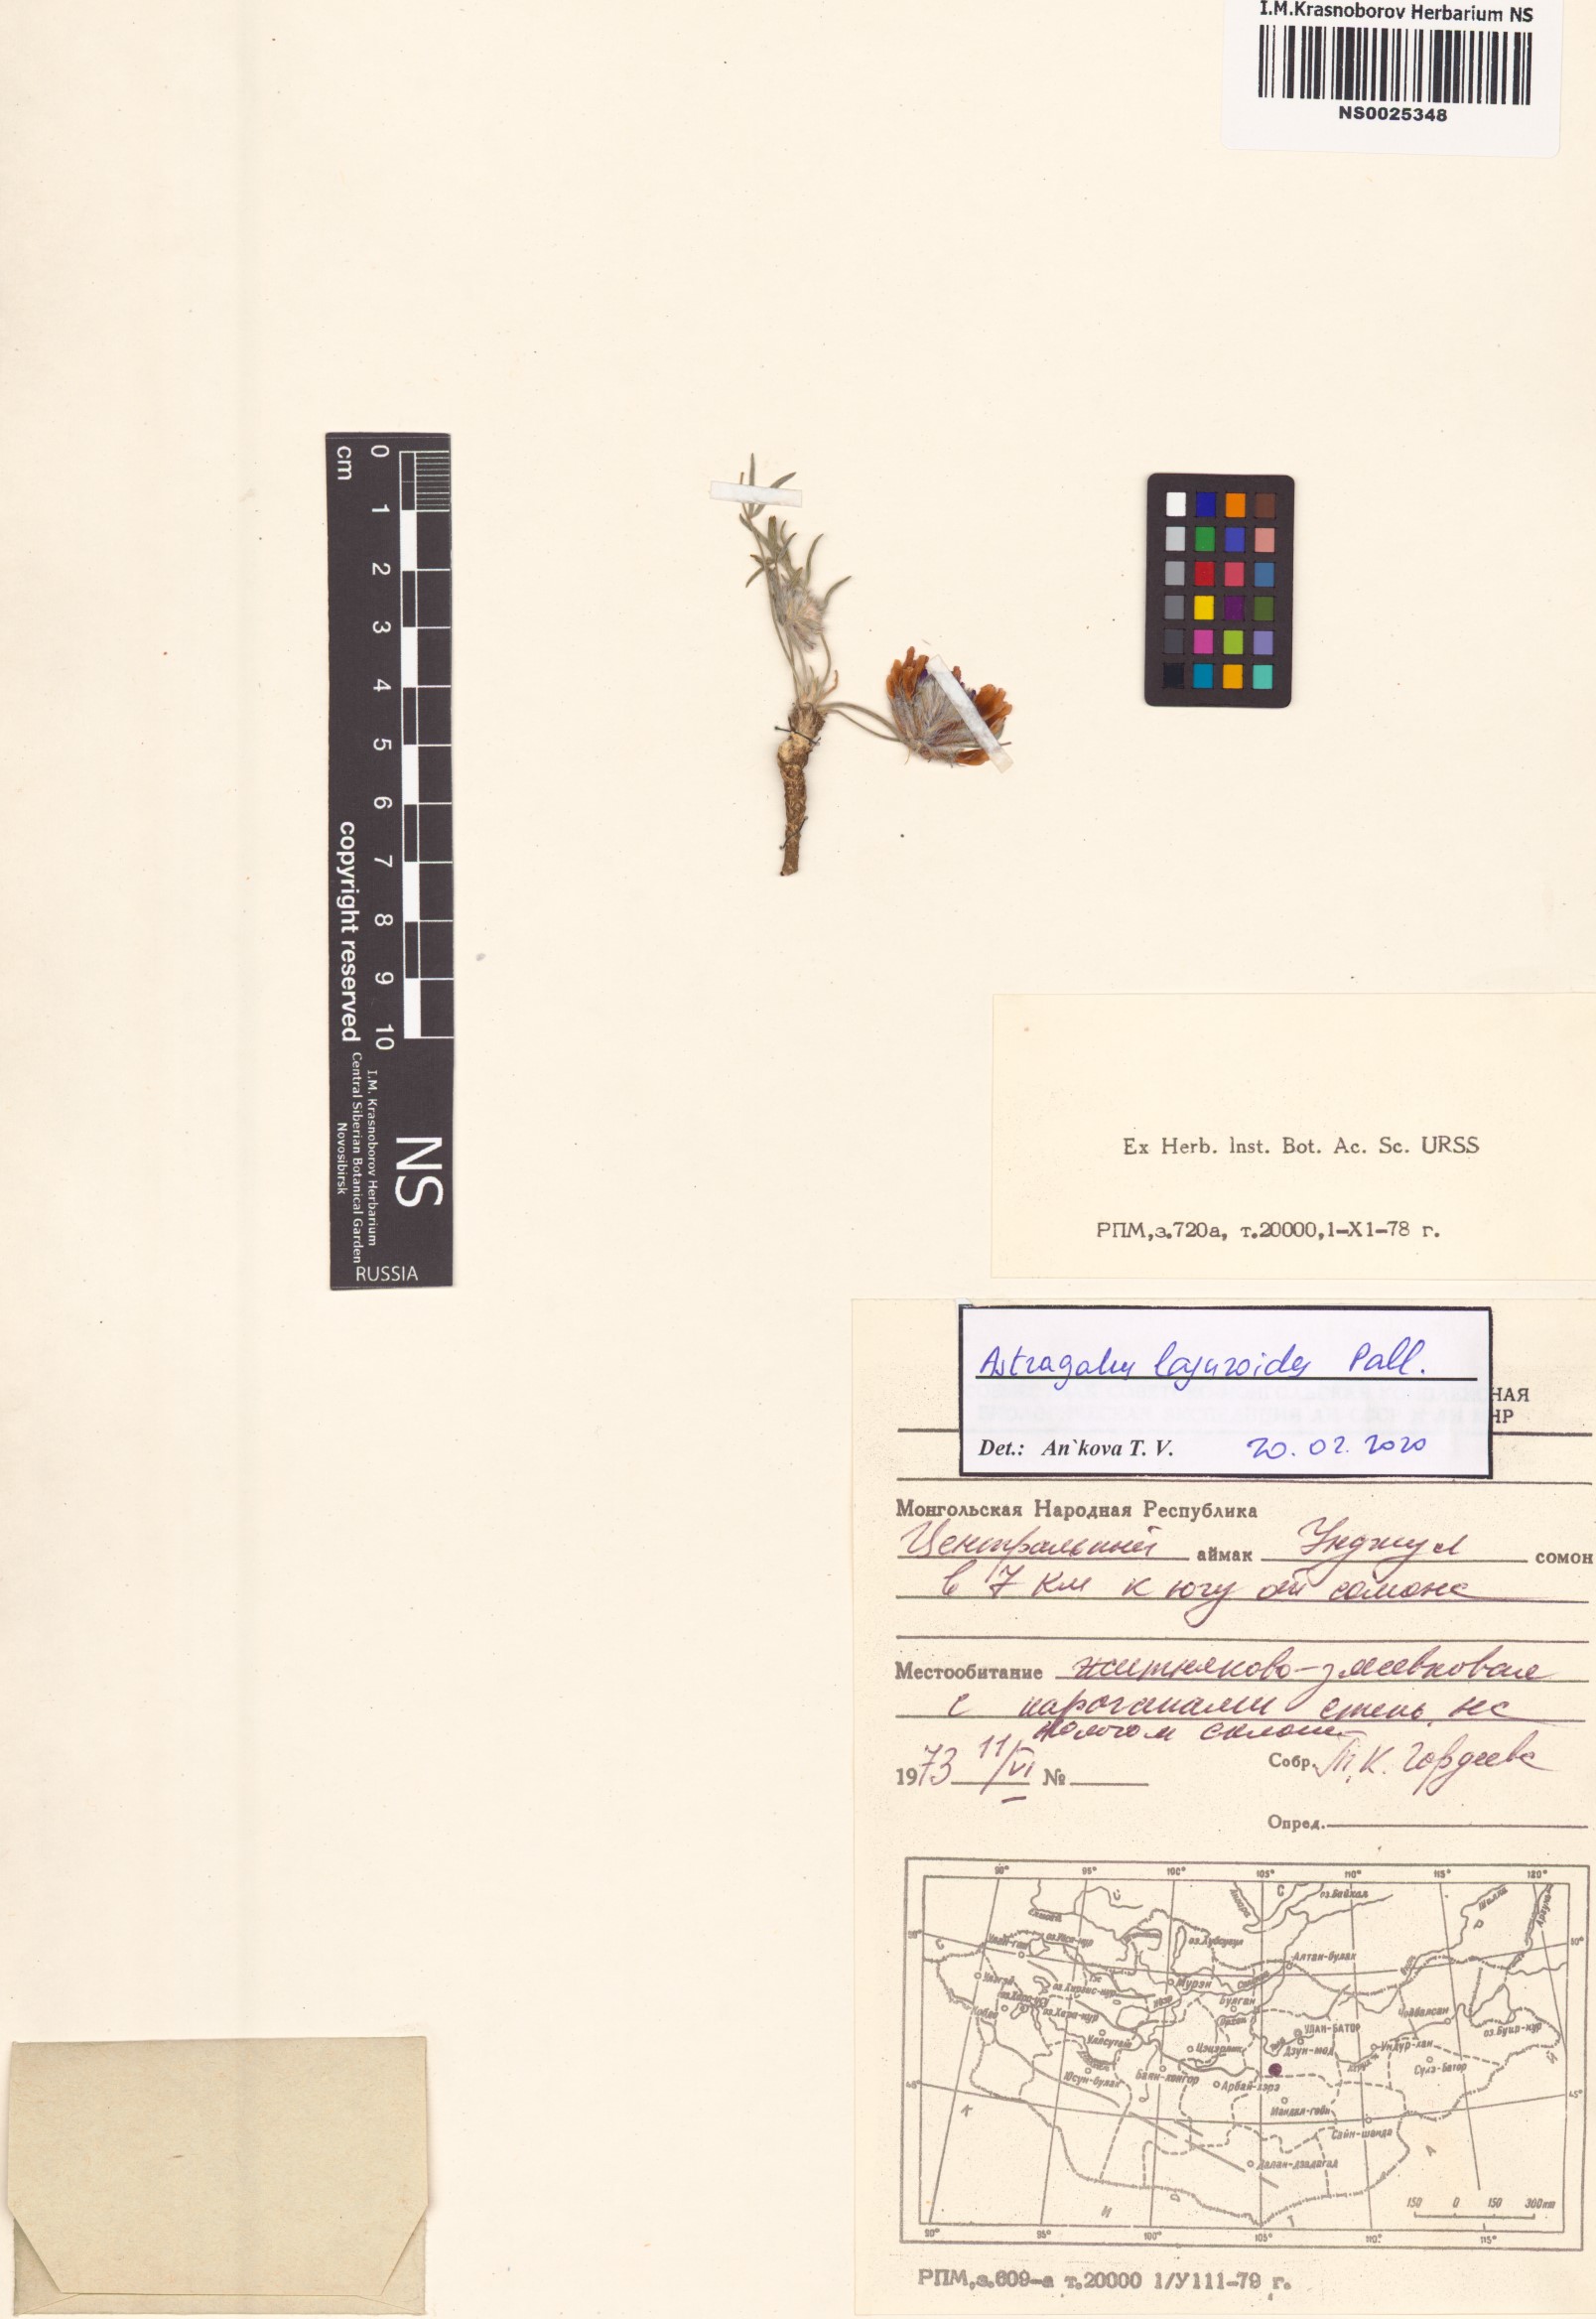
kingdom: Plantae
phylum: Tracheophyta
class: Magnoliopsida
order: Fabales
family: Fabaceae
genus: Astragalus
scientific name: Astragalus laguroides
